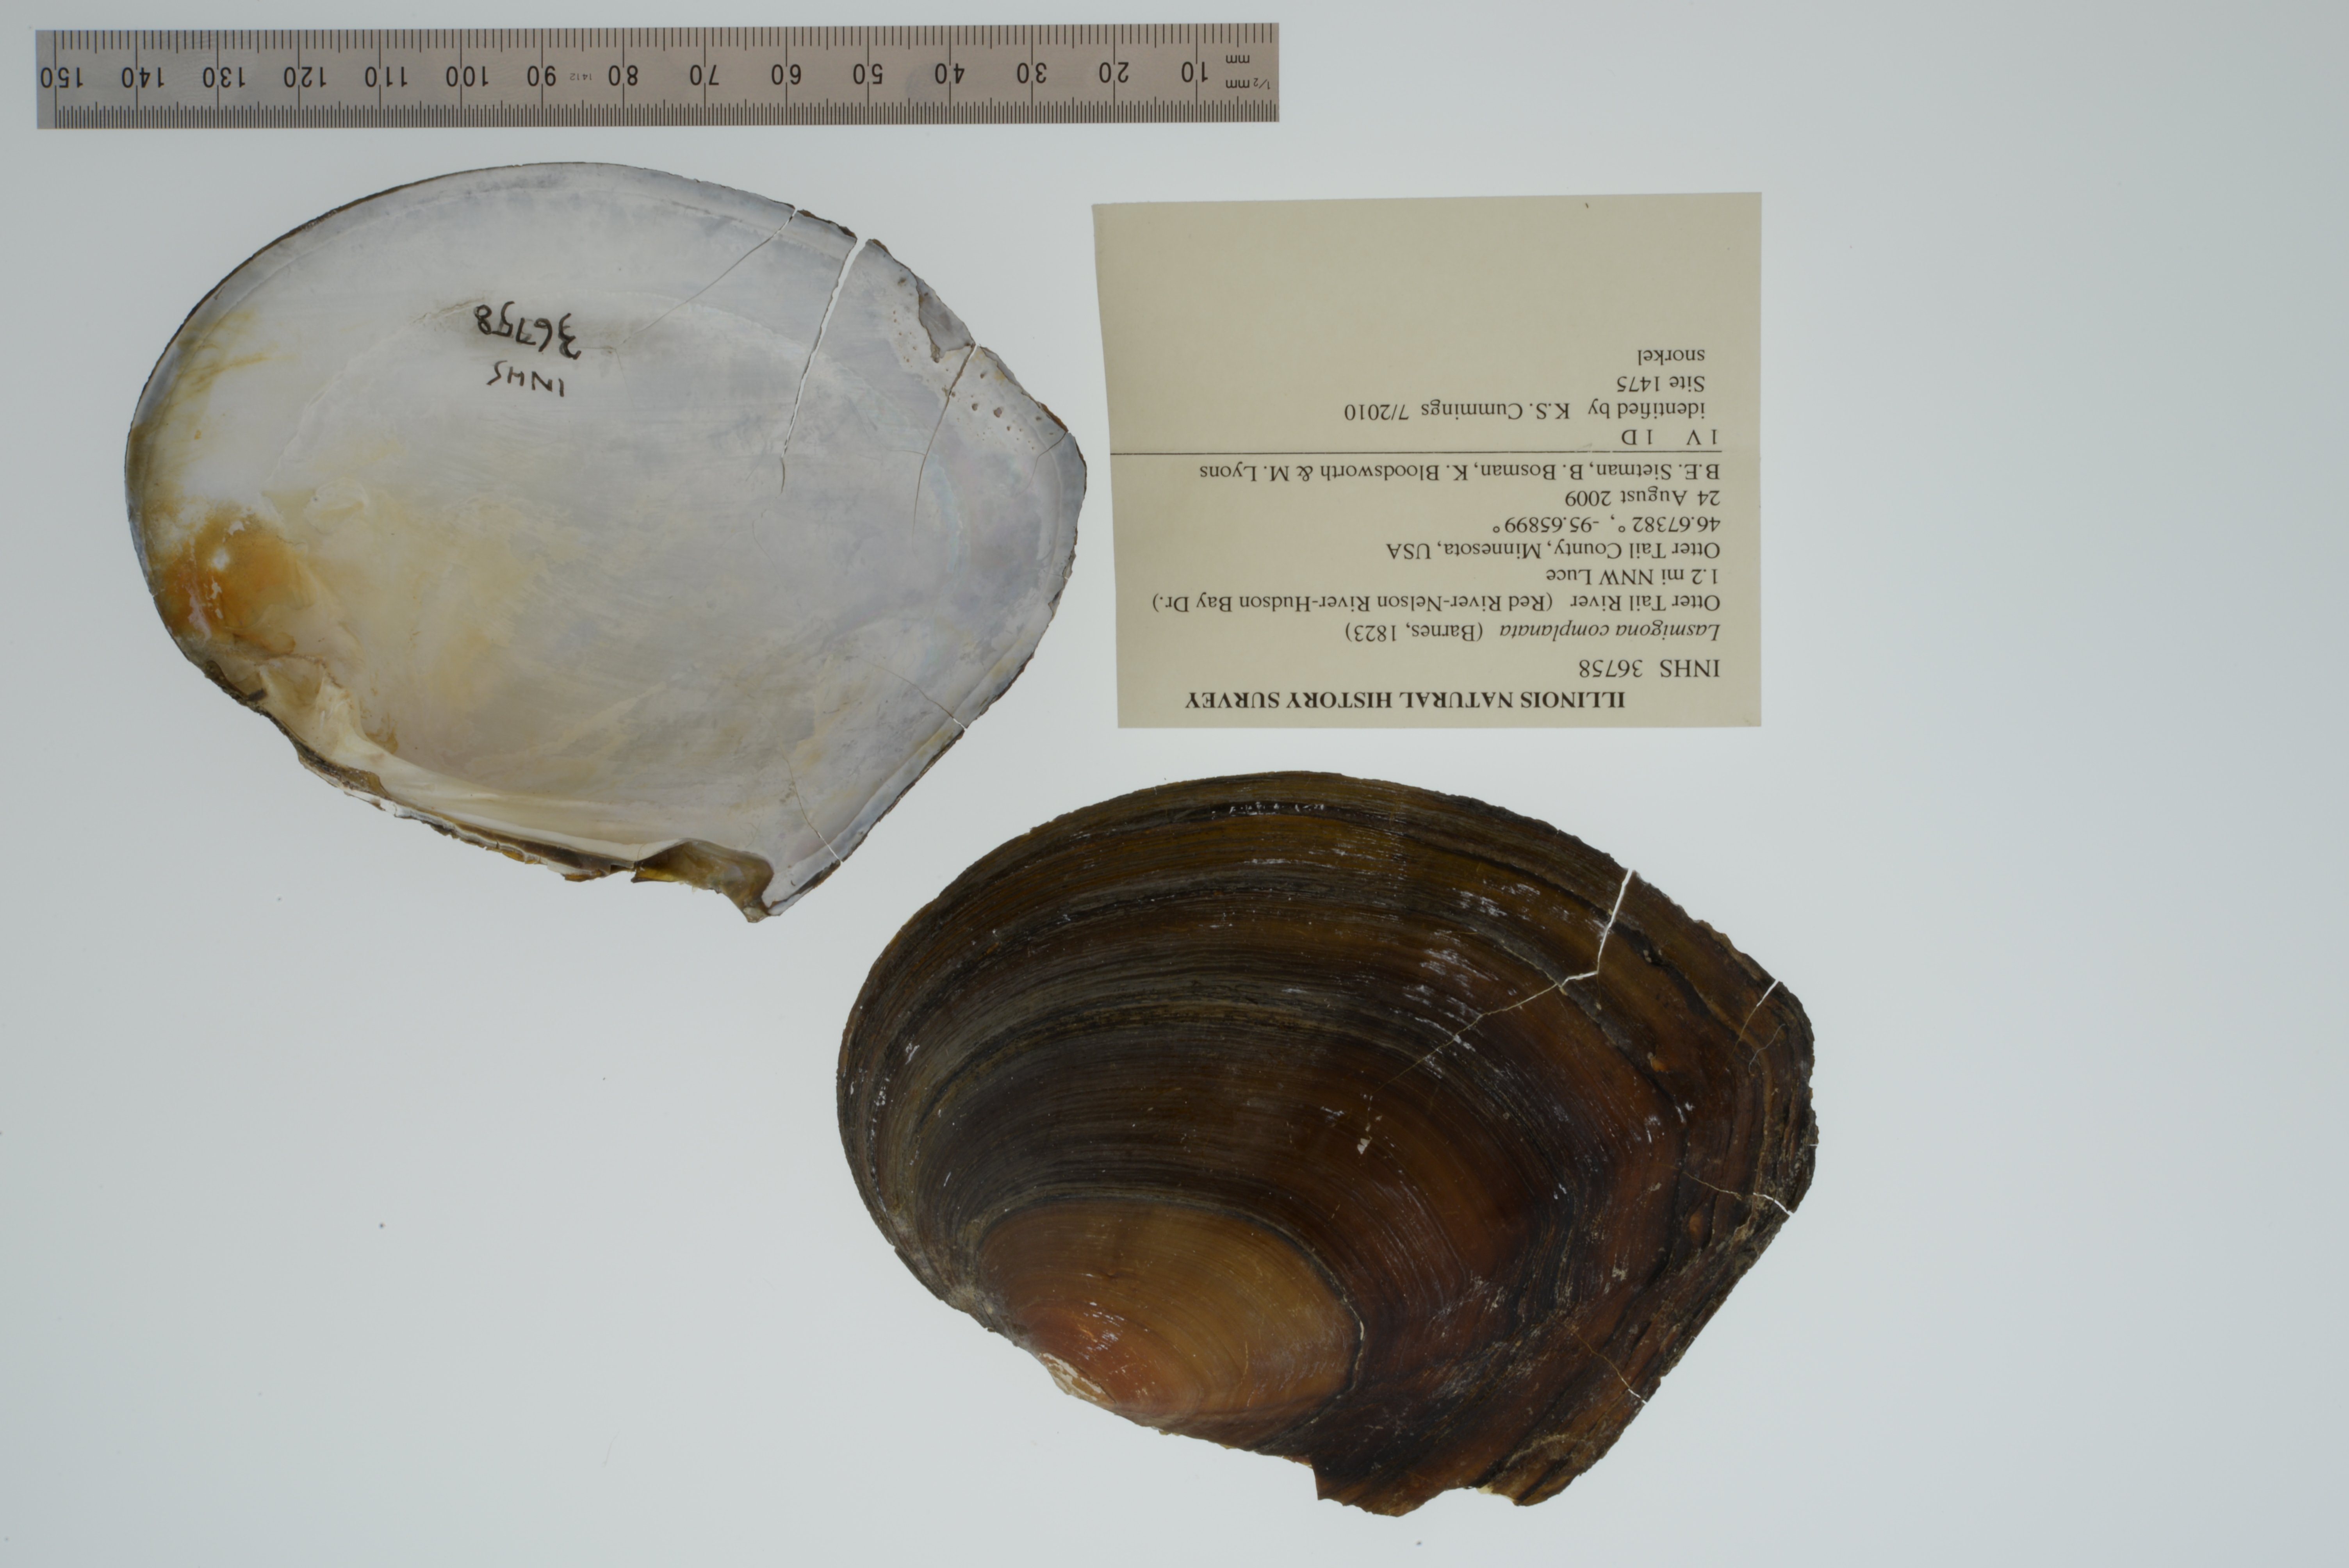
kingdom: Animalia
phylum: Mollusca
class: Bivalvia
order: Unionida
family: Unionidae
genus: Lasmigona
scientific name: Lasmigona complanata
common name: White heelsplitter
